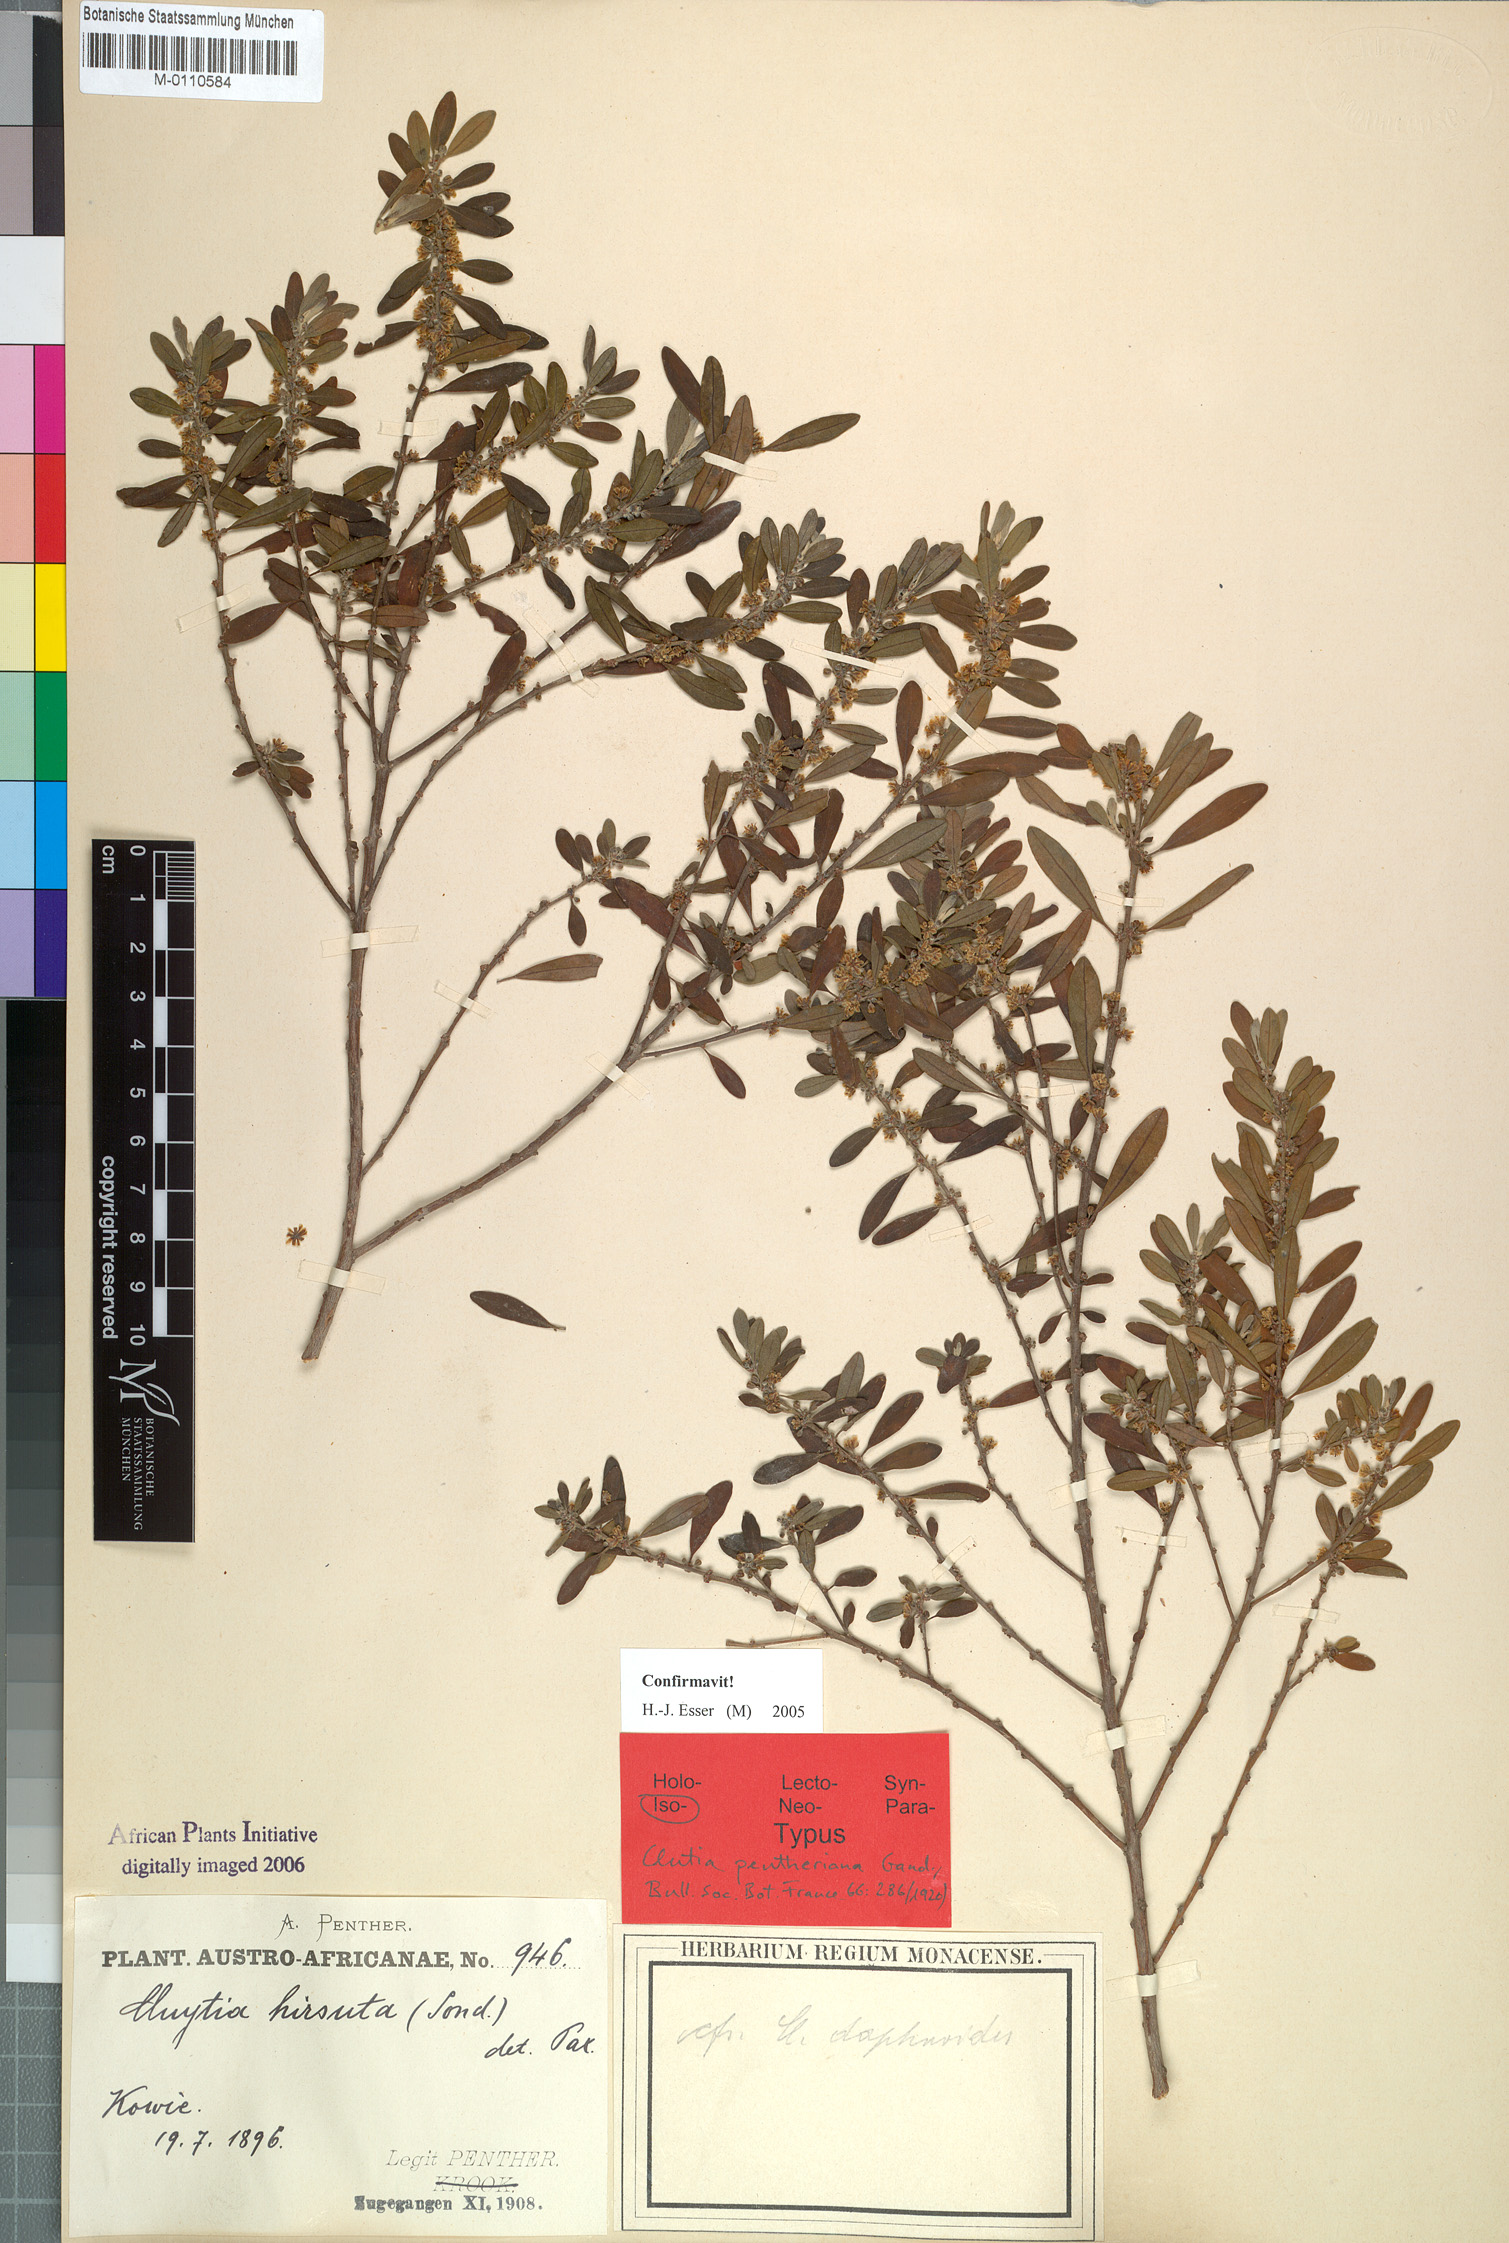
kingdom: Plantae
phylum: Tracheophyta
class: Magnoliopsida
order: Malpighiales
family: Peraceae
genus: Clutia
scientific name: Clutia pentheriana
